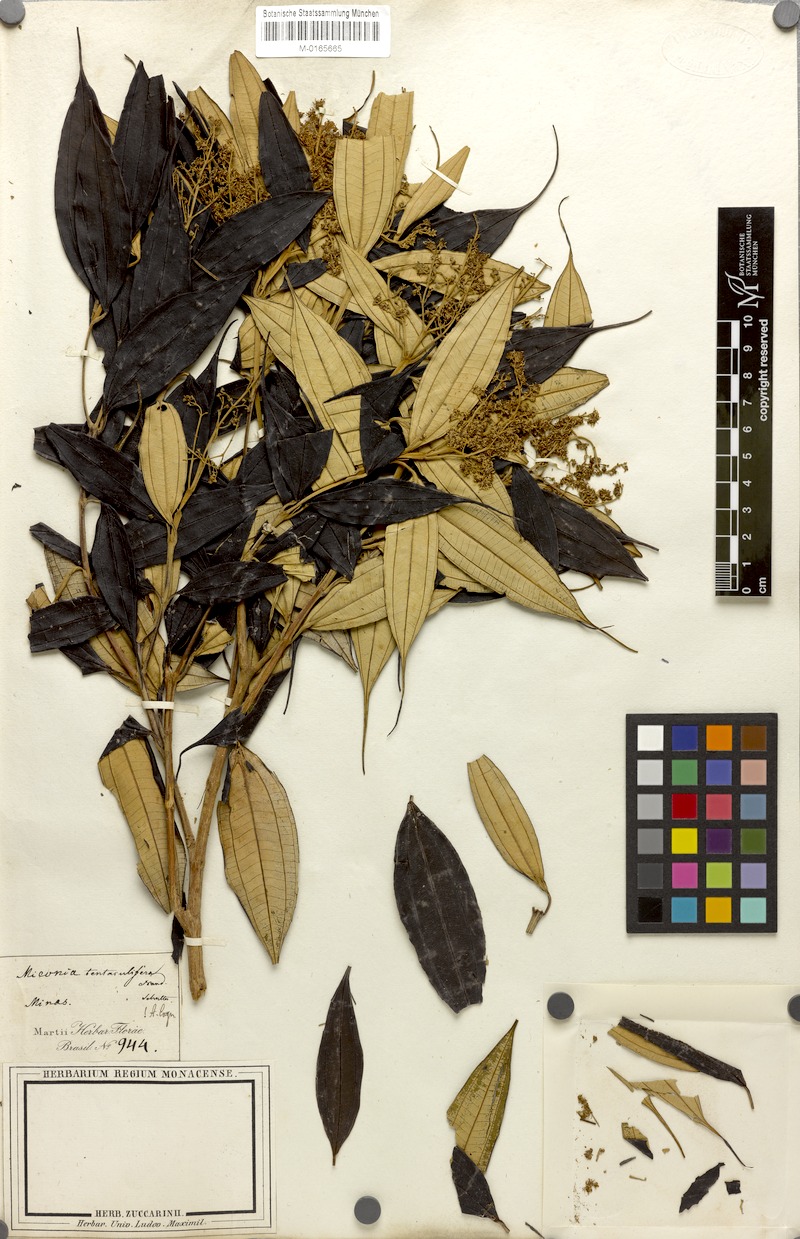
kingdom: Plantae
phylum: Tracheophyta
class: Magnoliopsida
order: Myrtales
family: Melastomataceae
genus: Miconia
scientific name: Miconia tentaculifera
